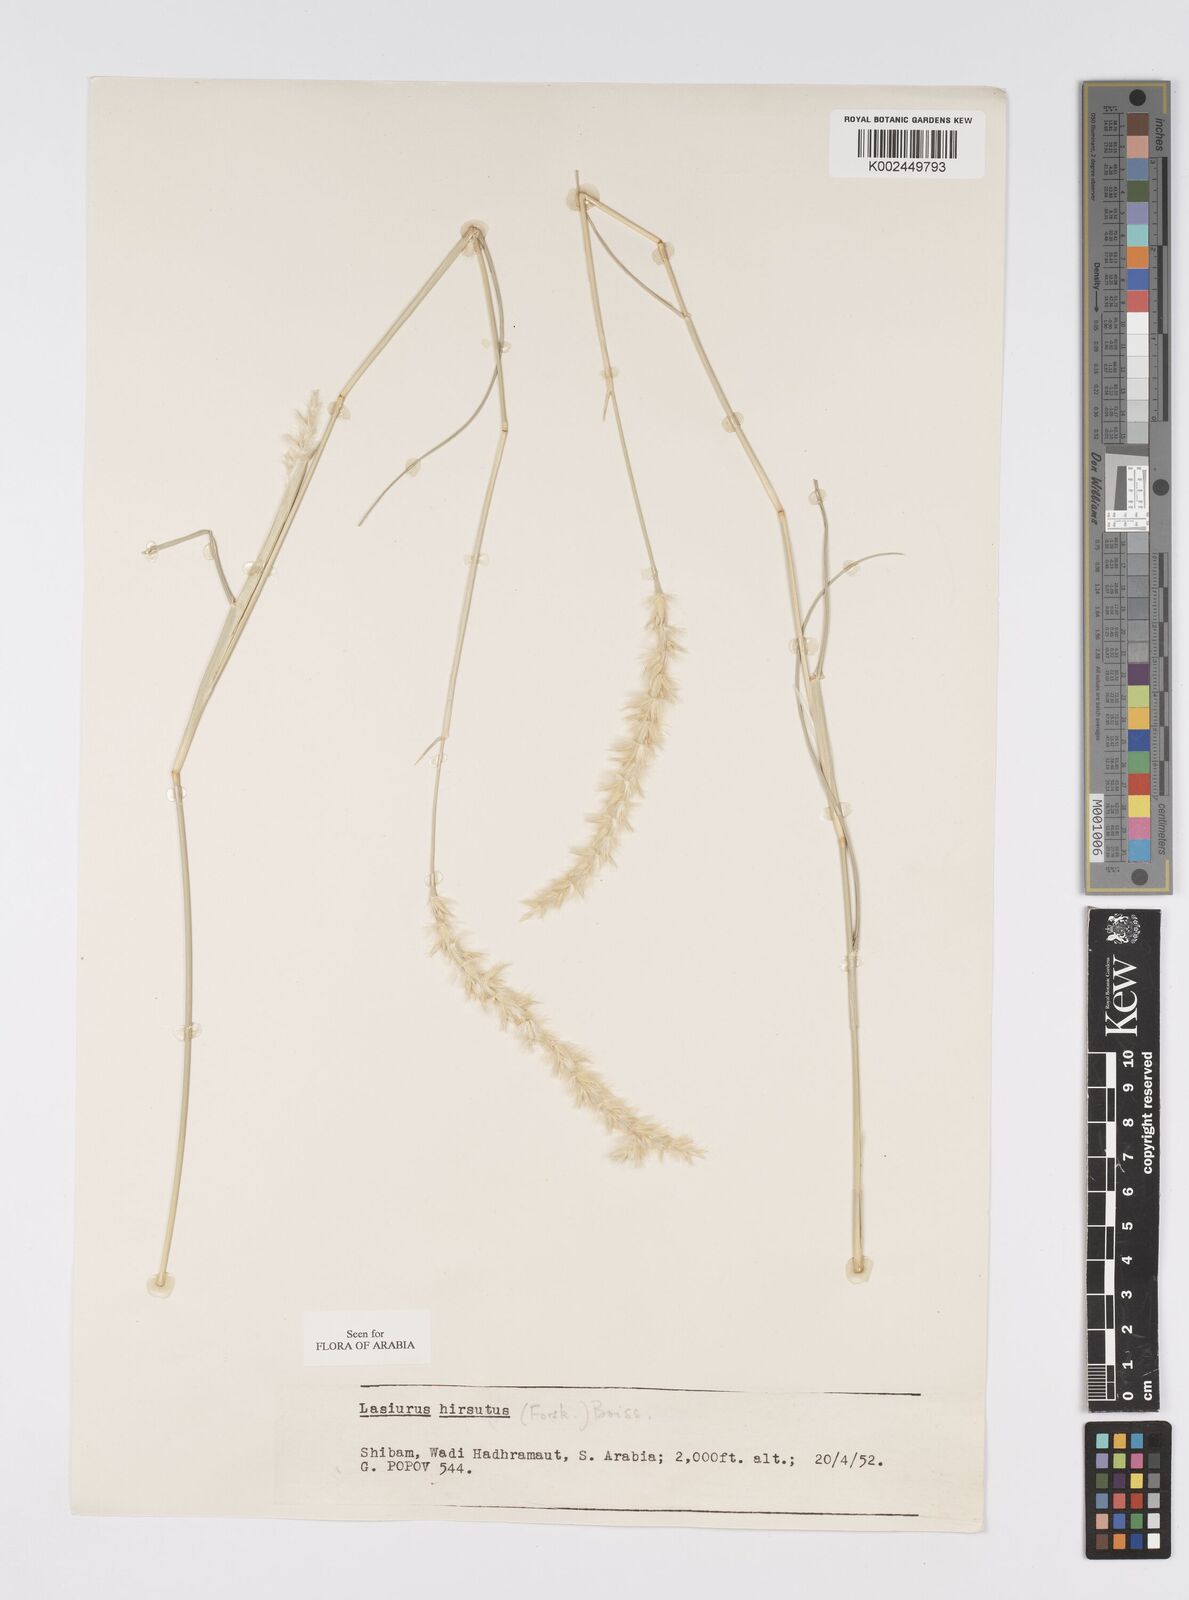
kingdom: Plantae
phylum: Tracheophyta
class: Liliopsida
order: Poales
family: Poaceae
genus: Lasiurus
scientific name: Lasiurus scindicus
